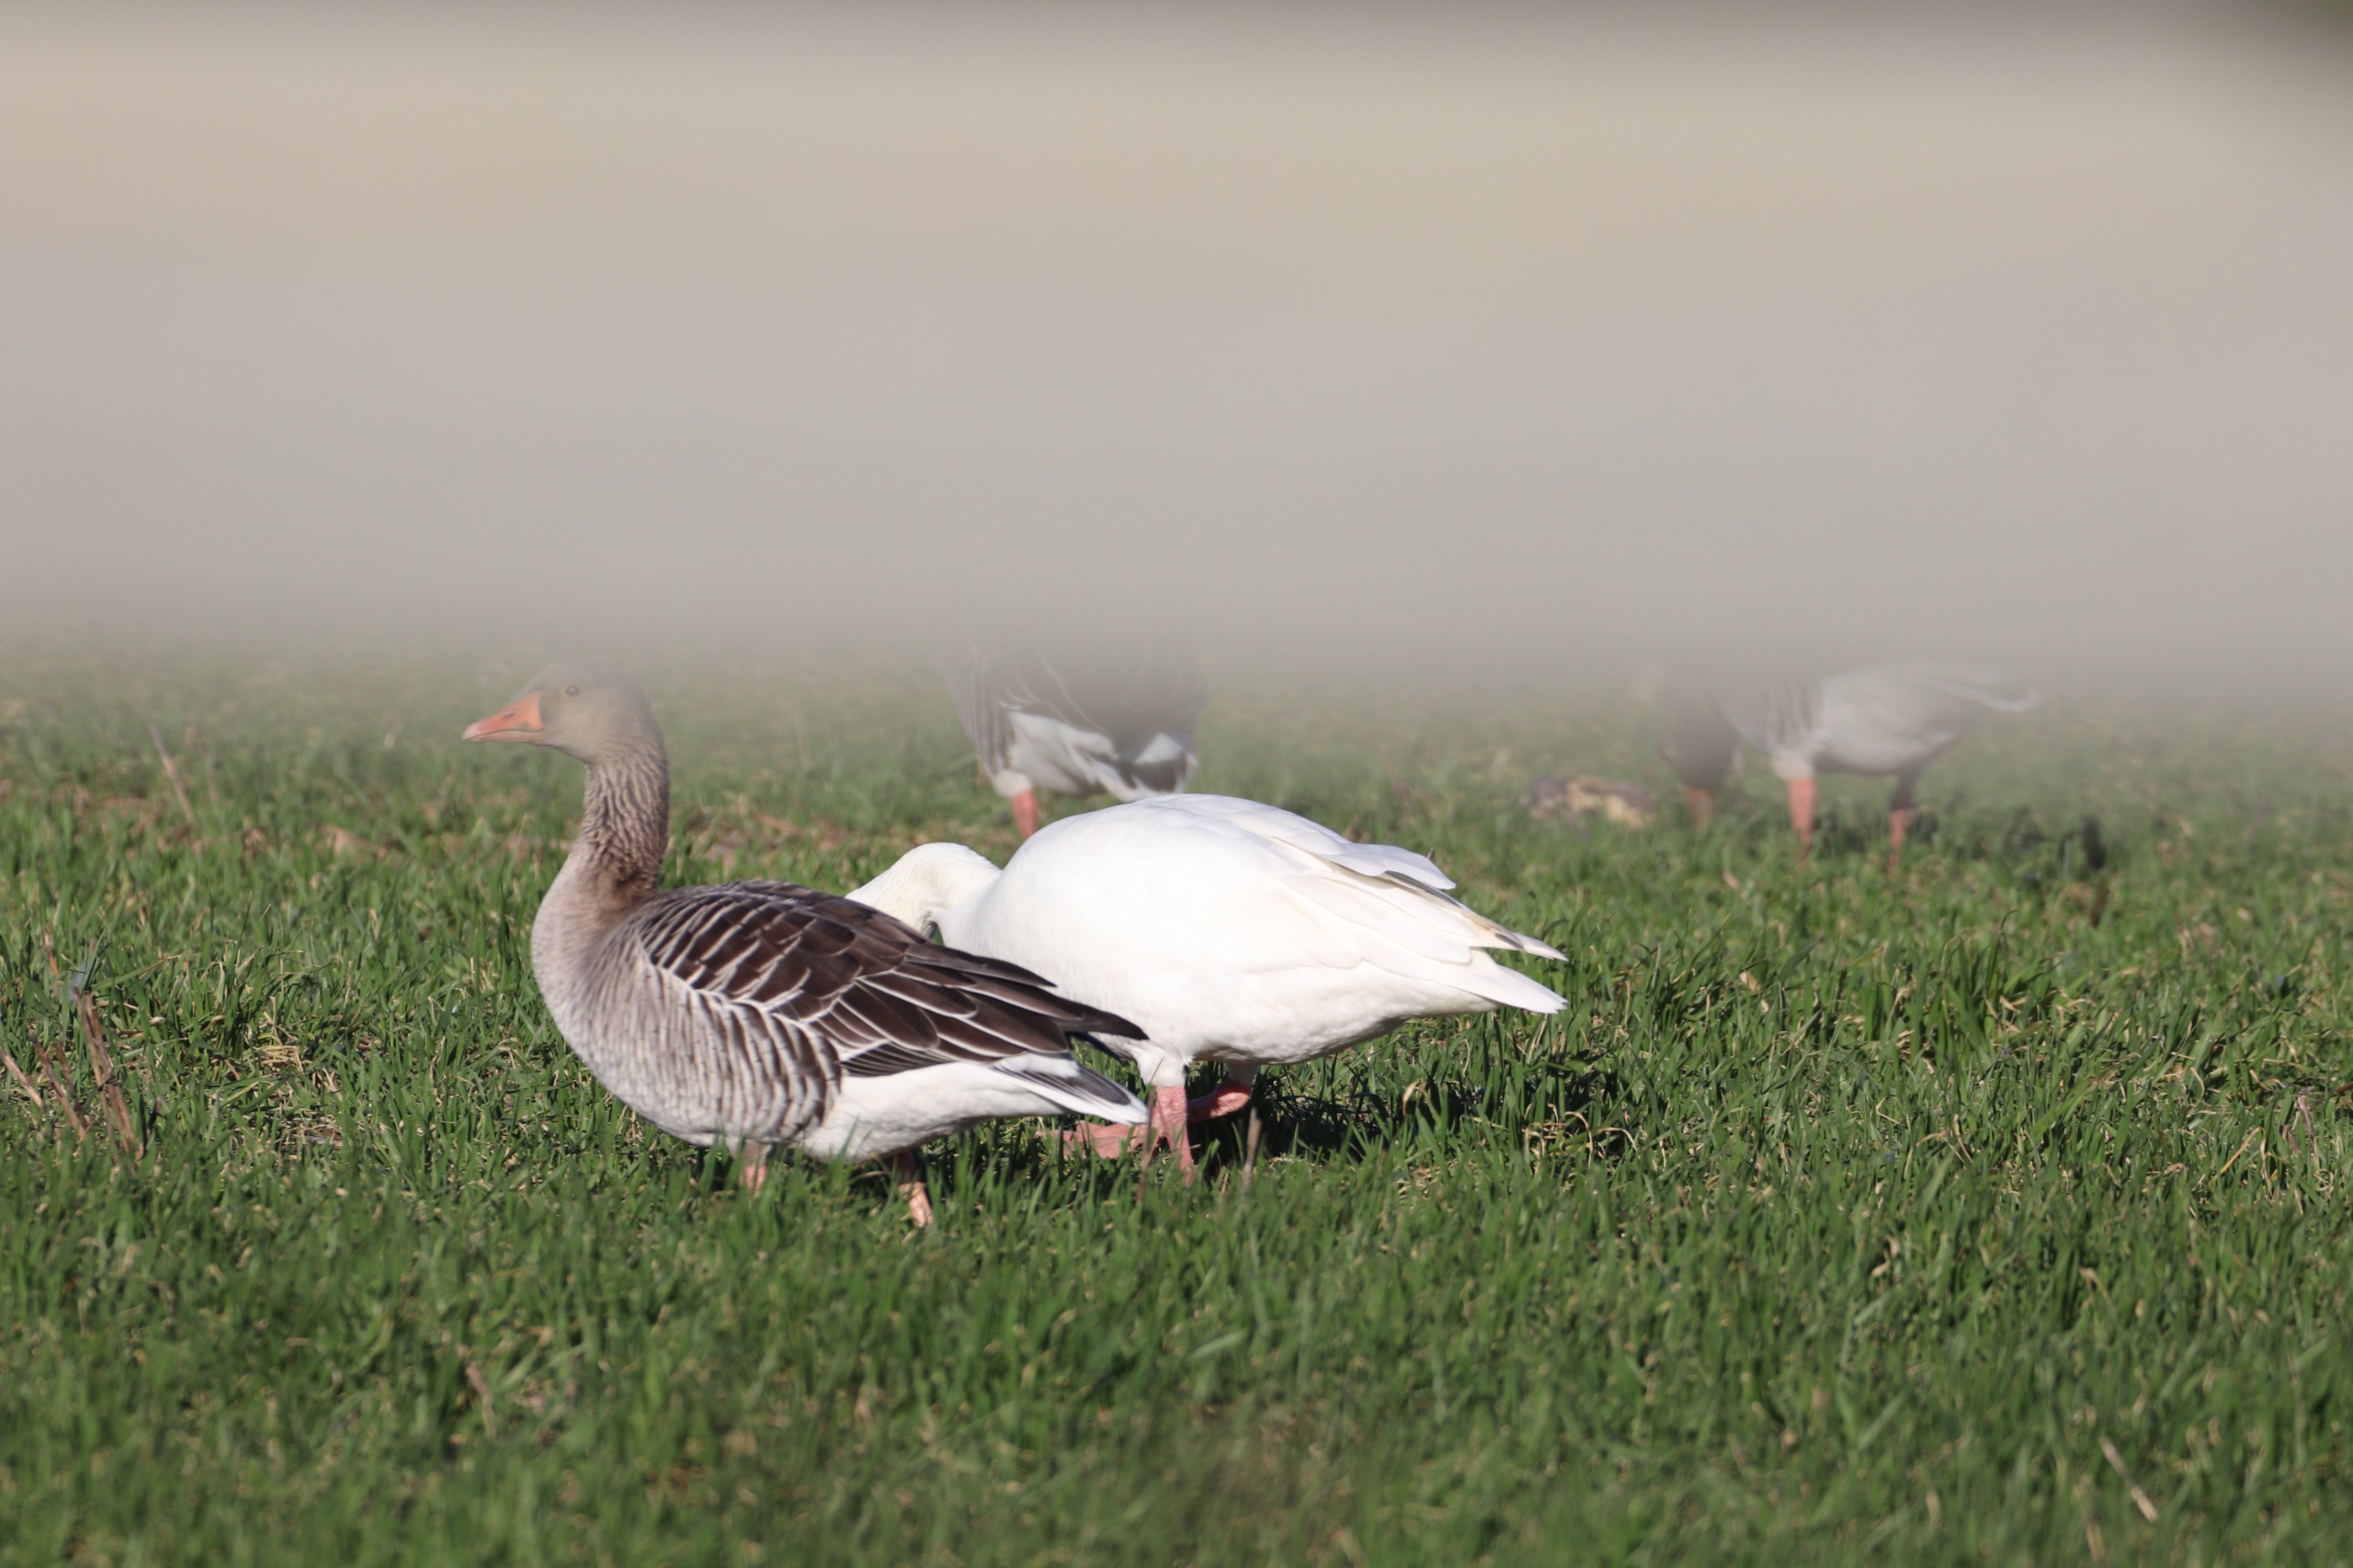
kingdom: Animalia
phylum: Chordata
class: Aves
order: Anseriformes
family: Anatidae
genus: Anser
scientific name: Anser anser
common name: Grågås
